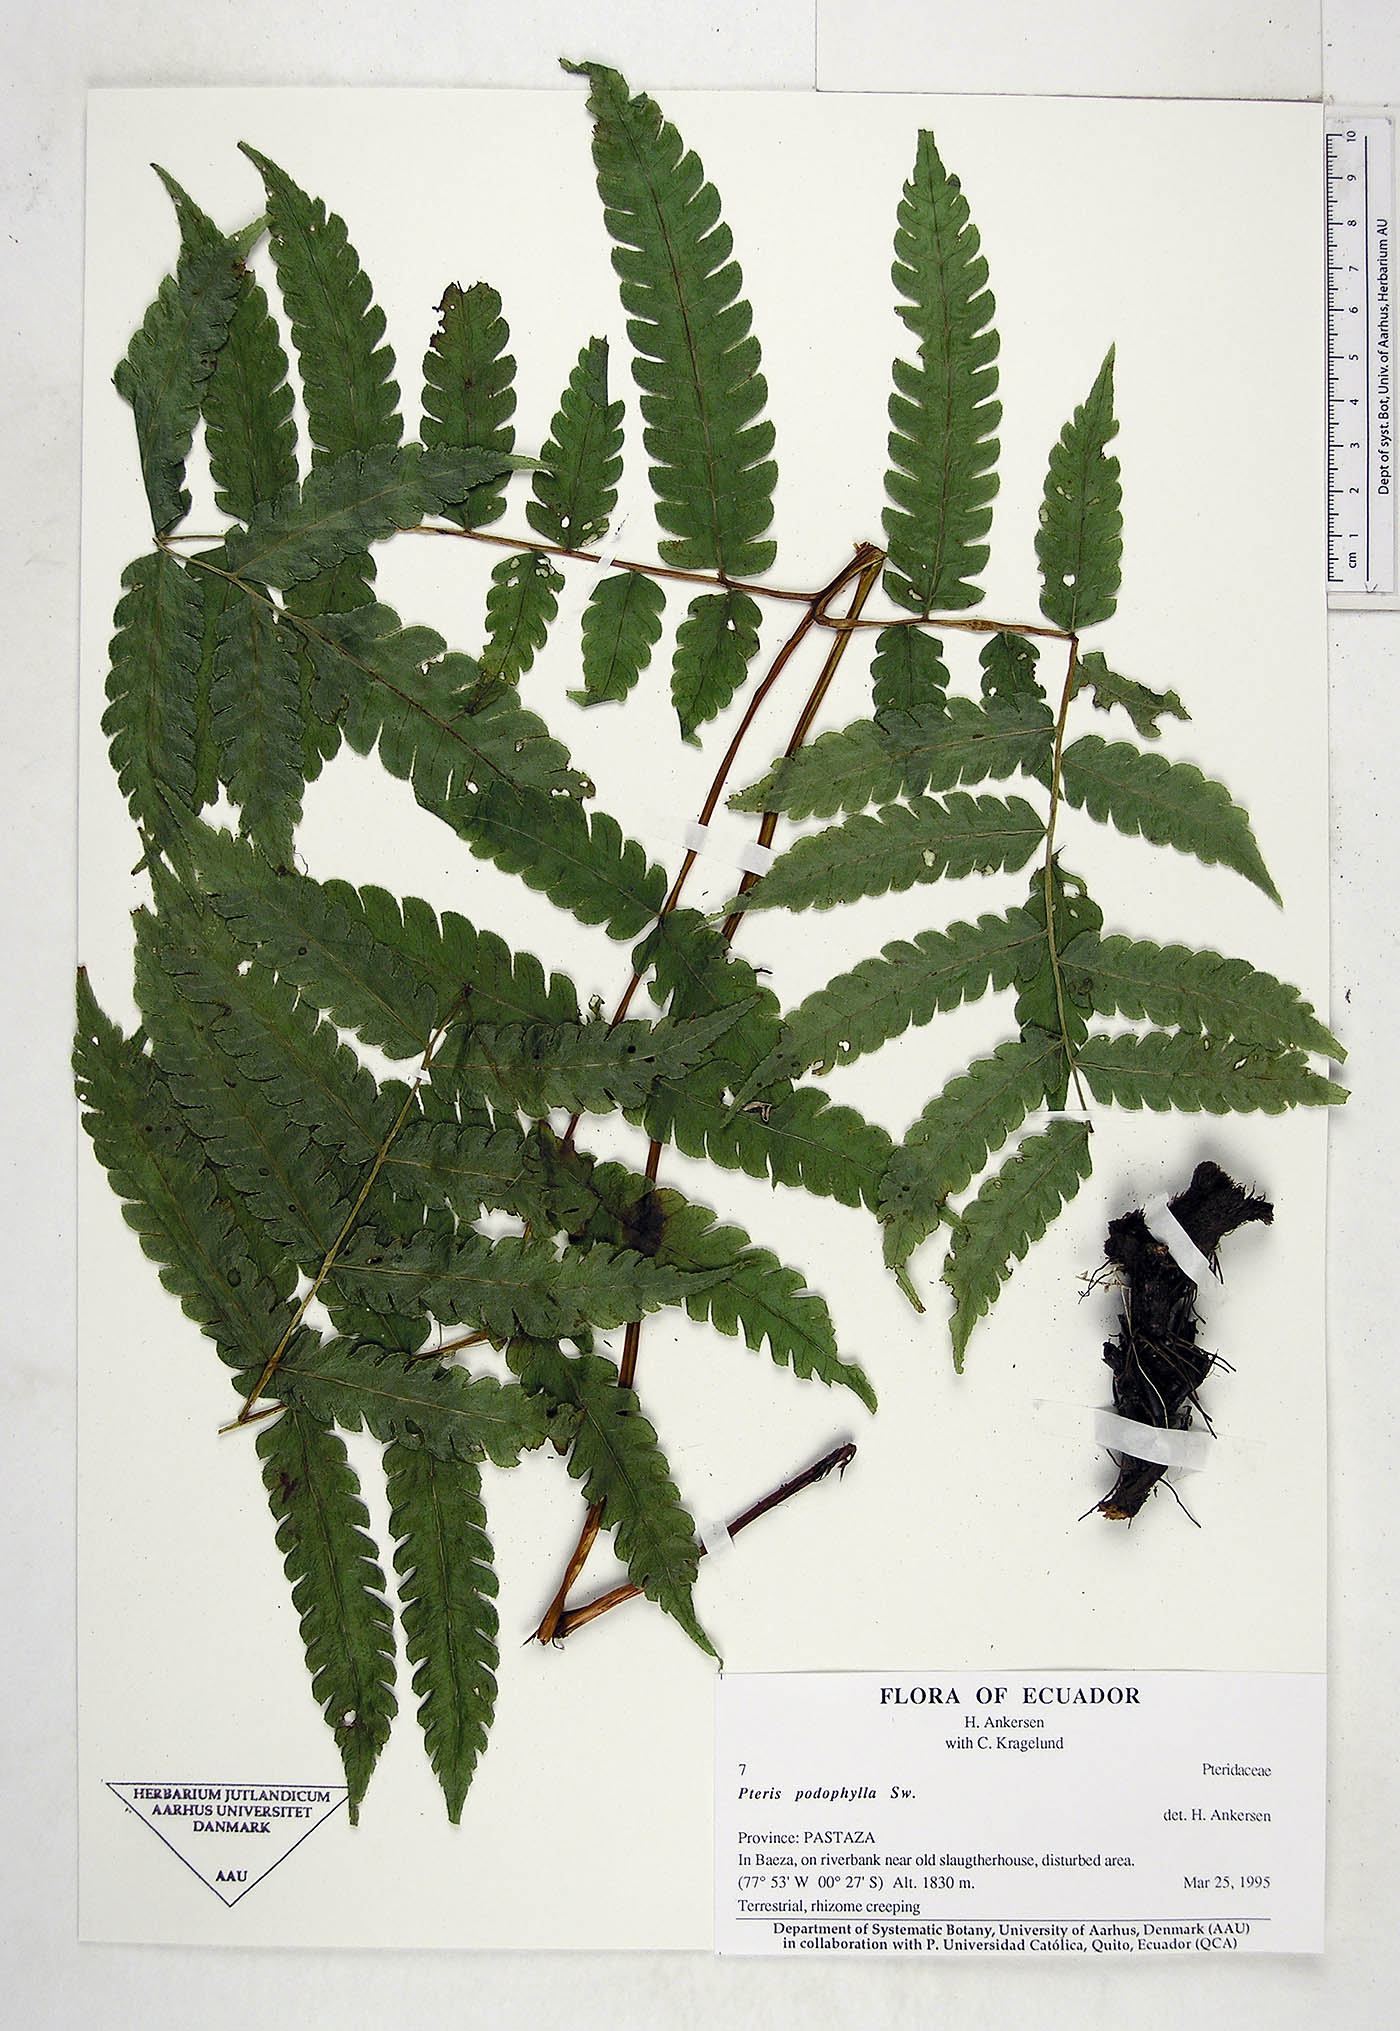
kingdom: Plantae
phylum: Tracheophyta
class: Polypodiopsida
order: Polypodiales
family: Pteridaceae
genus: Pteris
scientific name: Pteris podophylla
